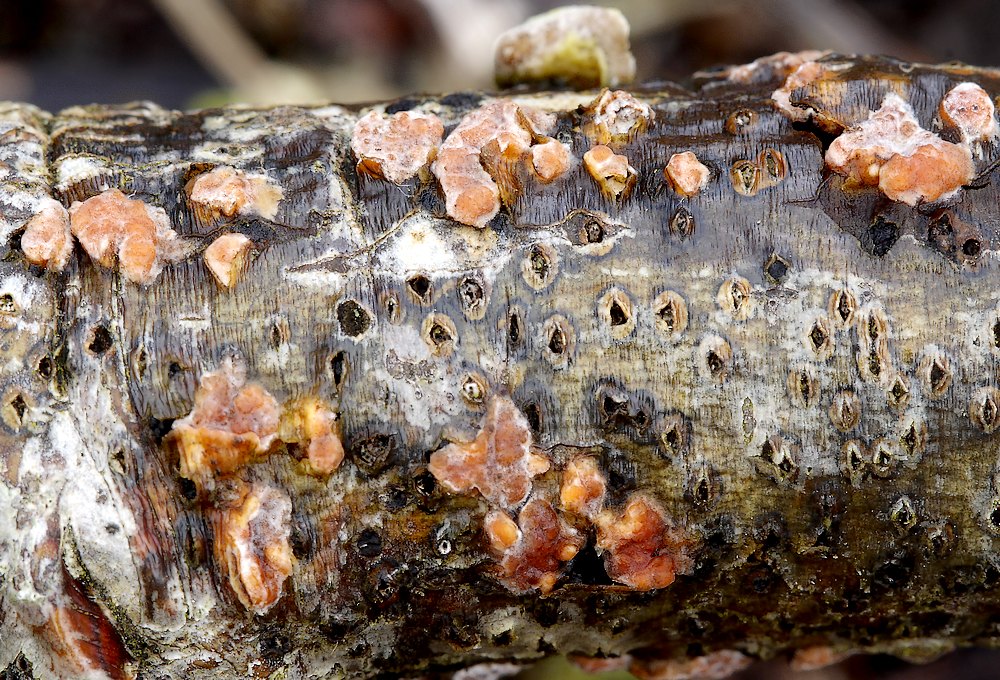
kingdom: Fungi
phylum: Basidiomycota
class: Agaricomycetes
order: Russulales
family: Peniophoraceae
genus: Peniophora
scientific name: Peniophora polygonia
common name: polygon-voksskind
